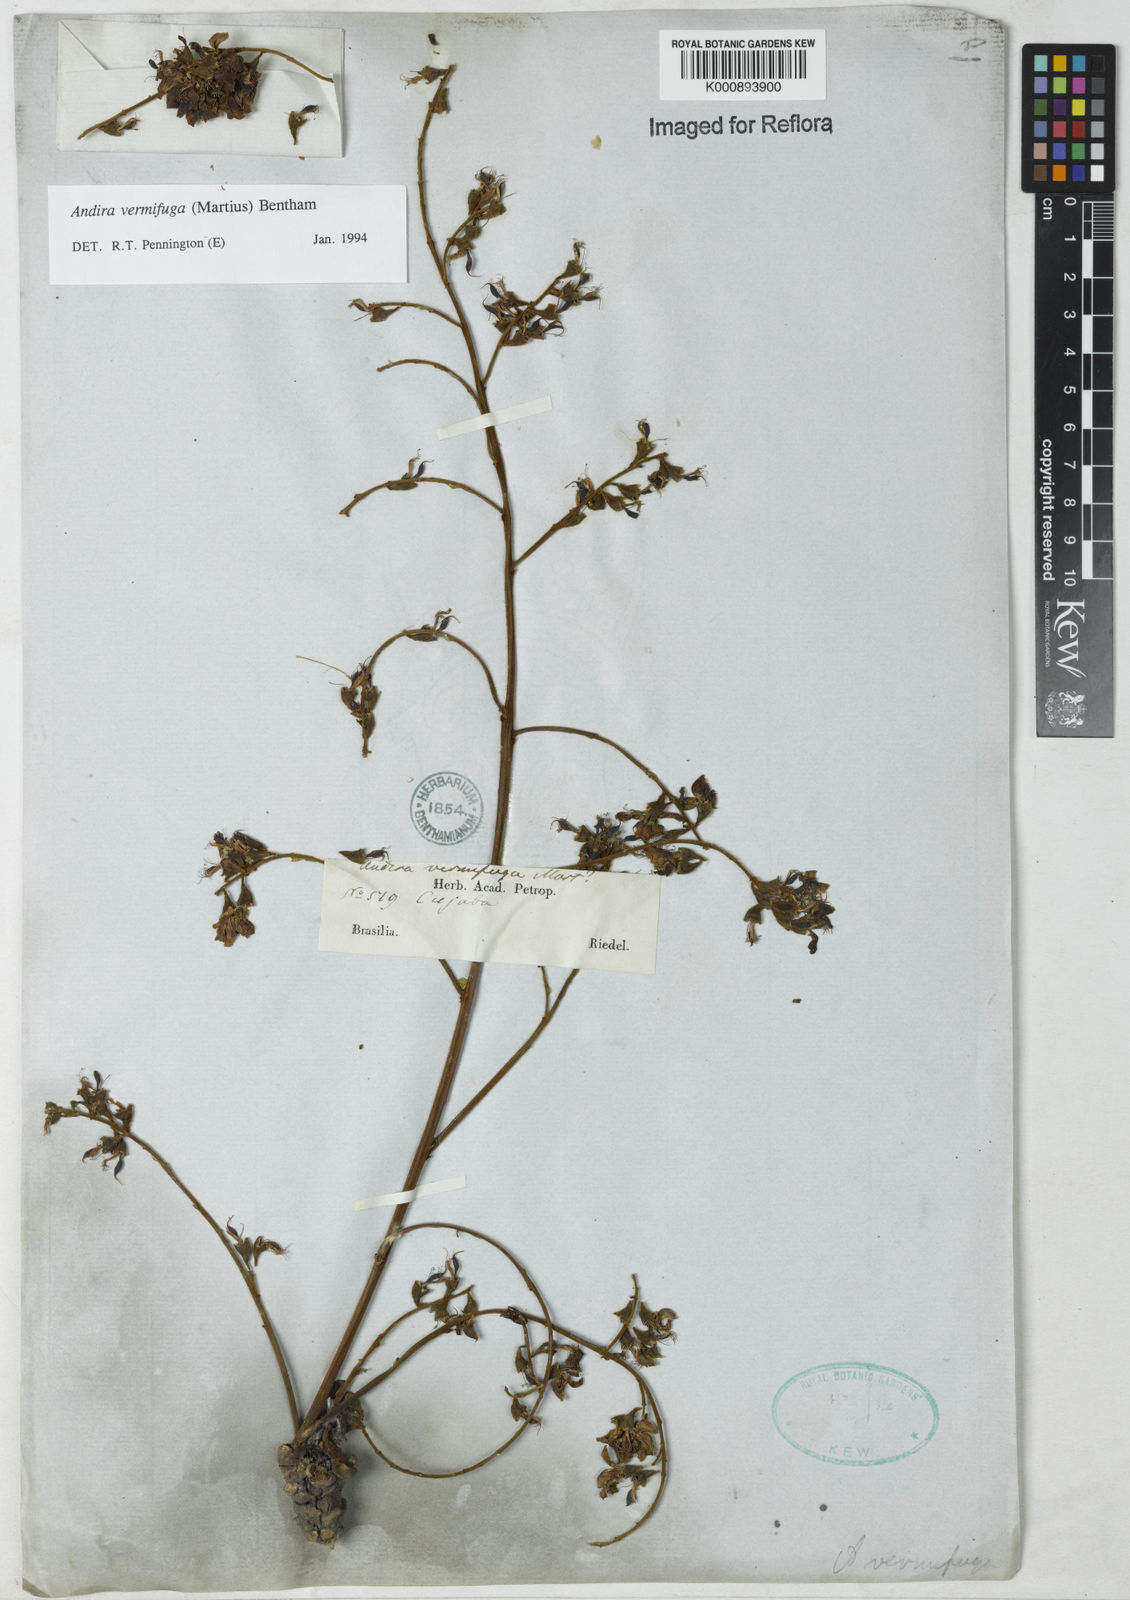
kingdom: Plantae
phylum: Tracheophyta
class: Magnoliopsida
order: Fabales
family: Fabaceae
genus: Andira
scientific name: Andira vermifuga
